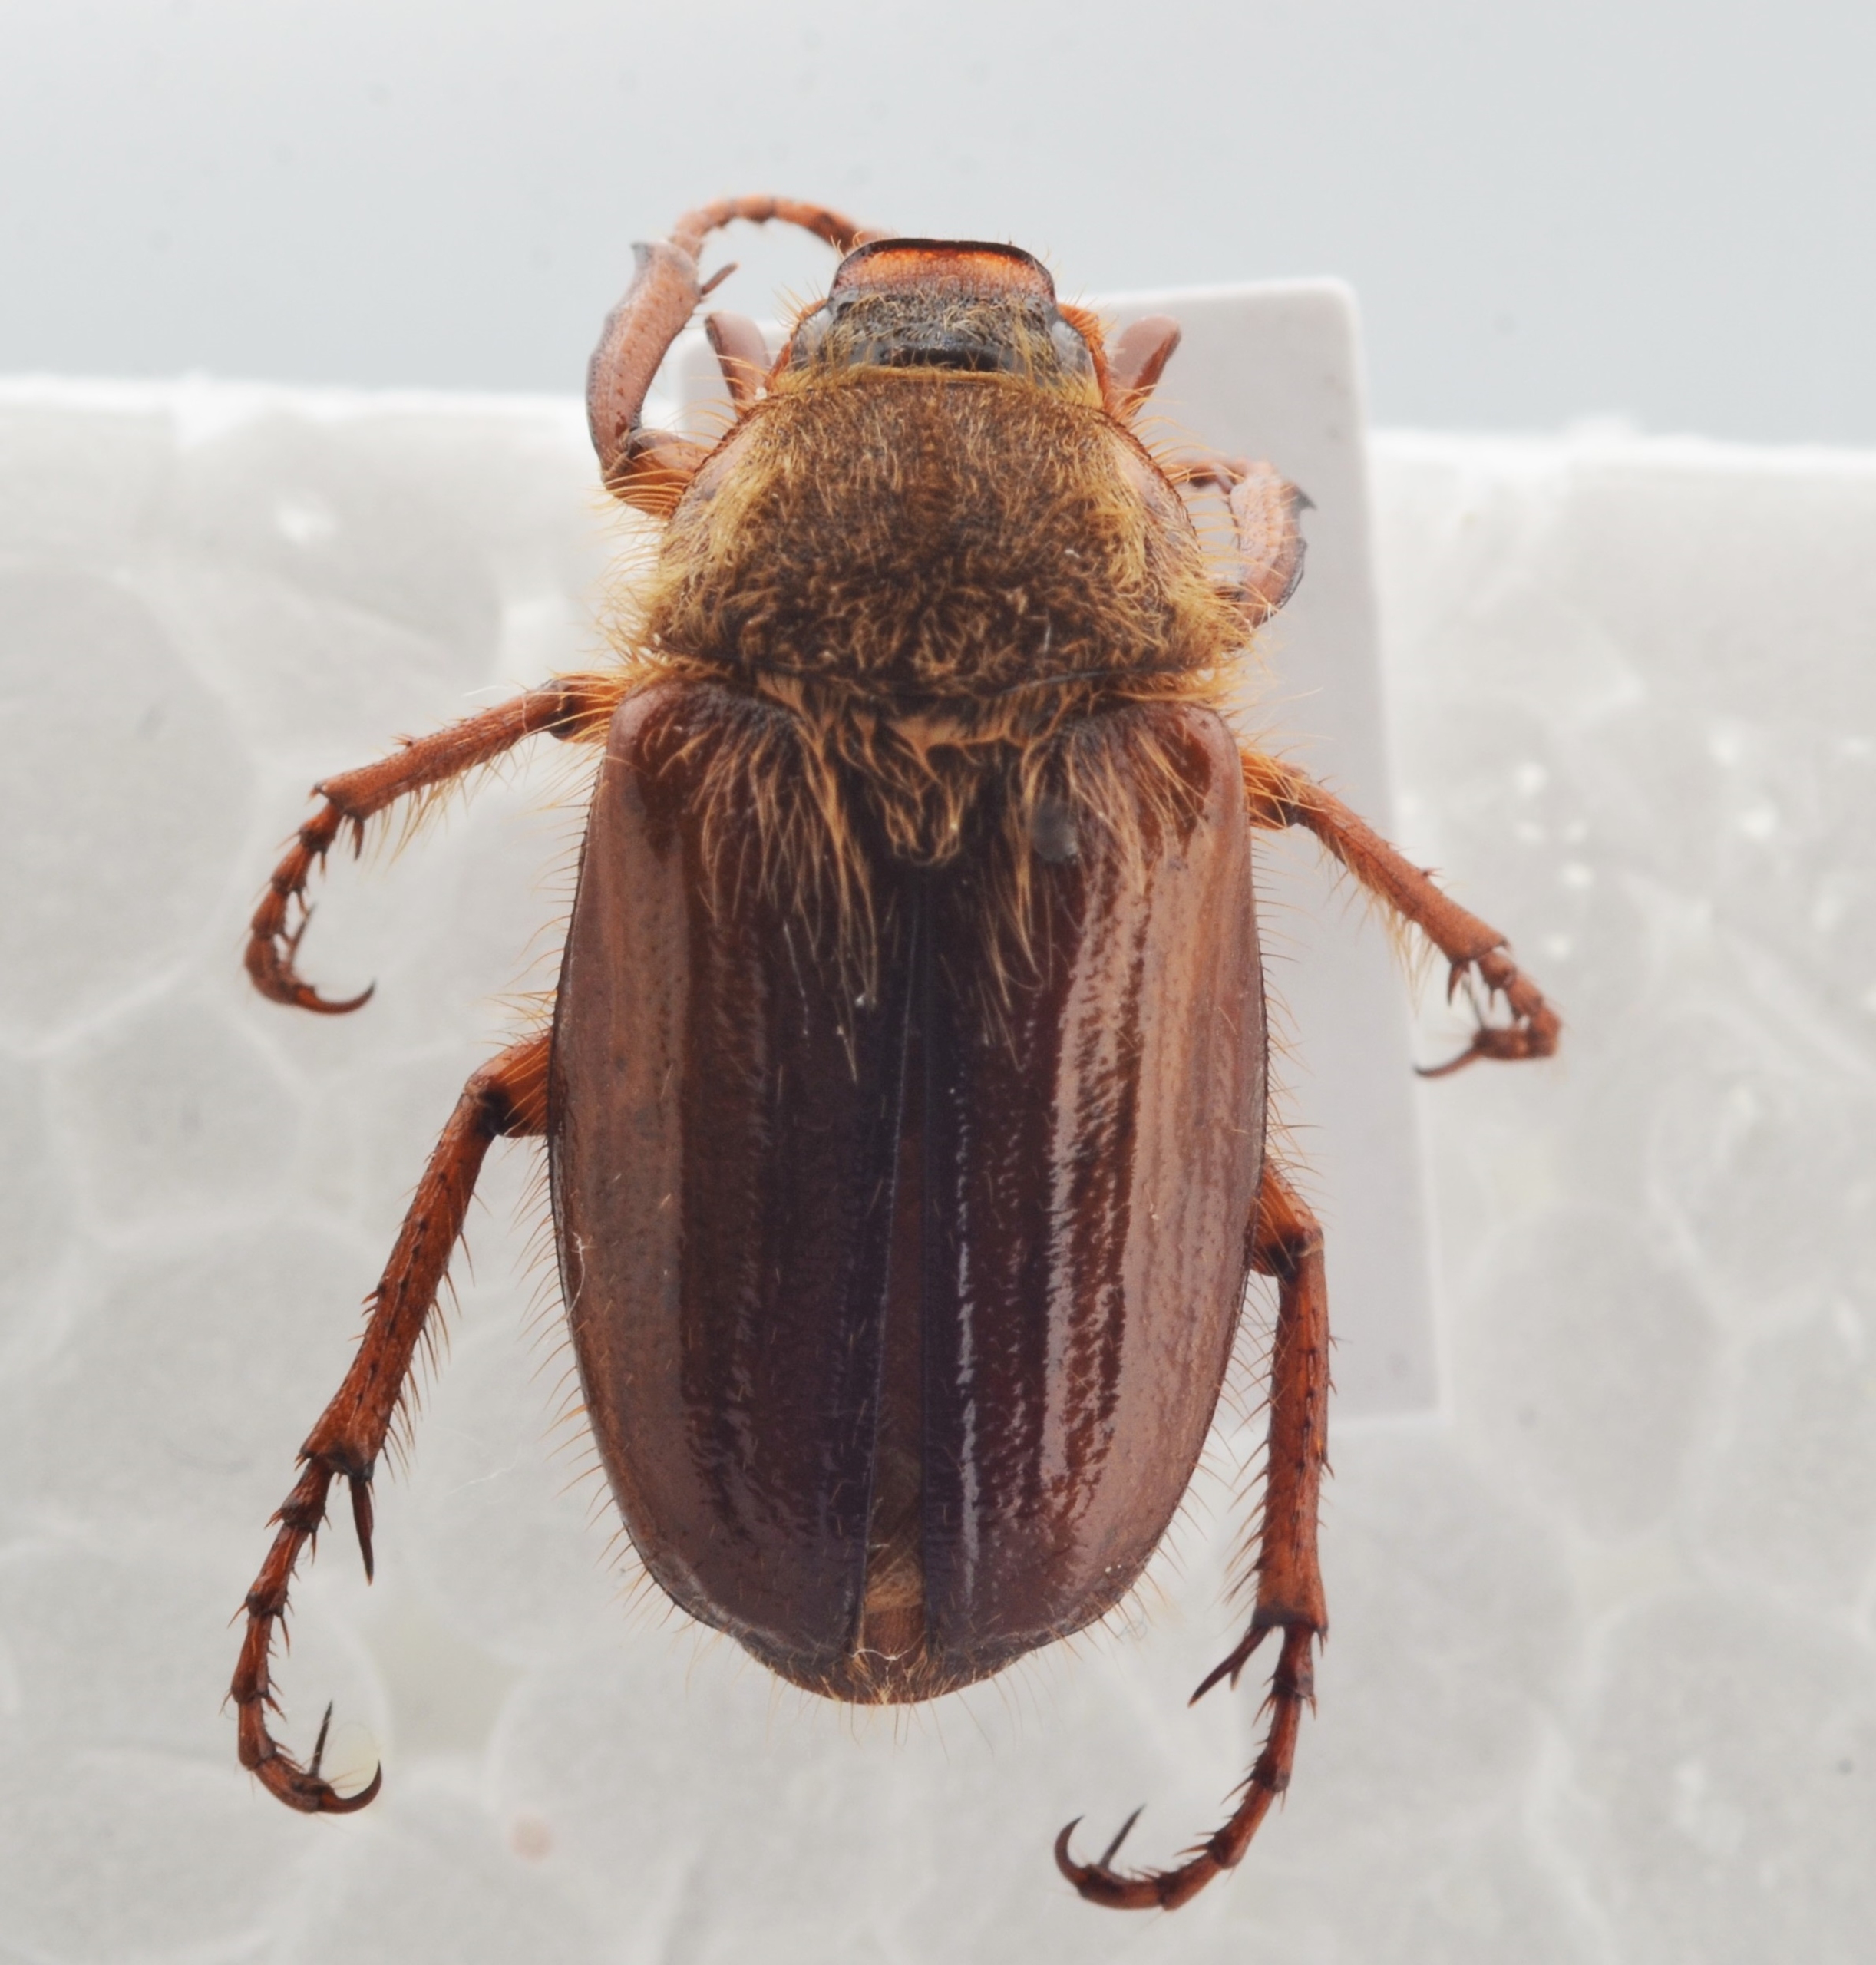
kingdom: Animalia
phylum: Arthropoda
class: Insecta
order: Coleoptera
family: Scarabaeidae
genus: Amphimallon
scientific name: Amphimallon ochraceum
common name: Hedeoldenborre
